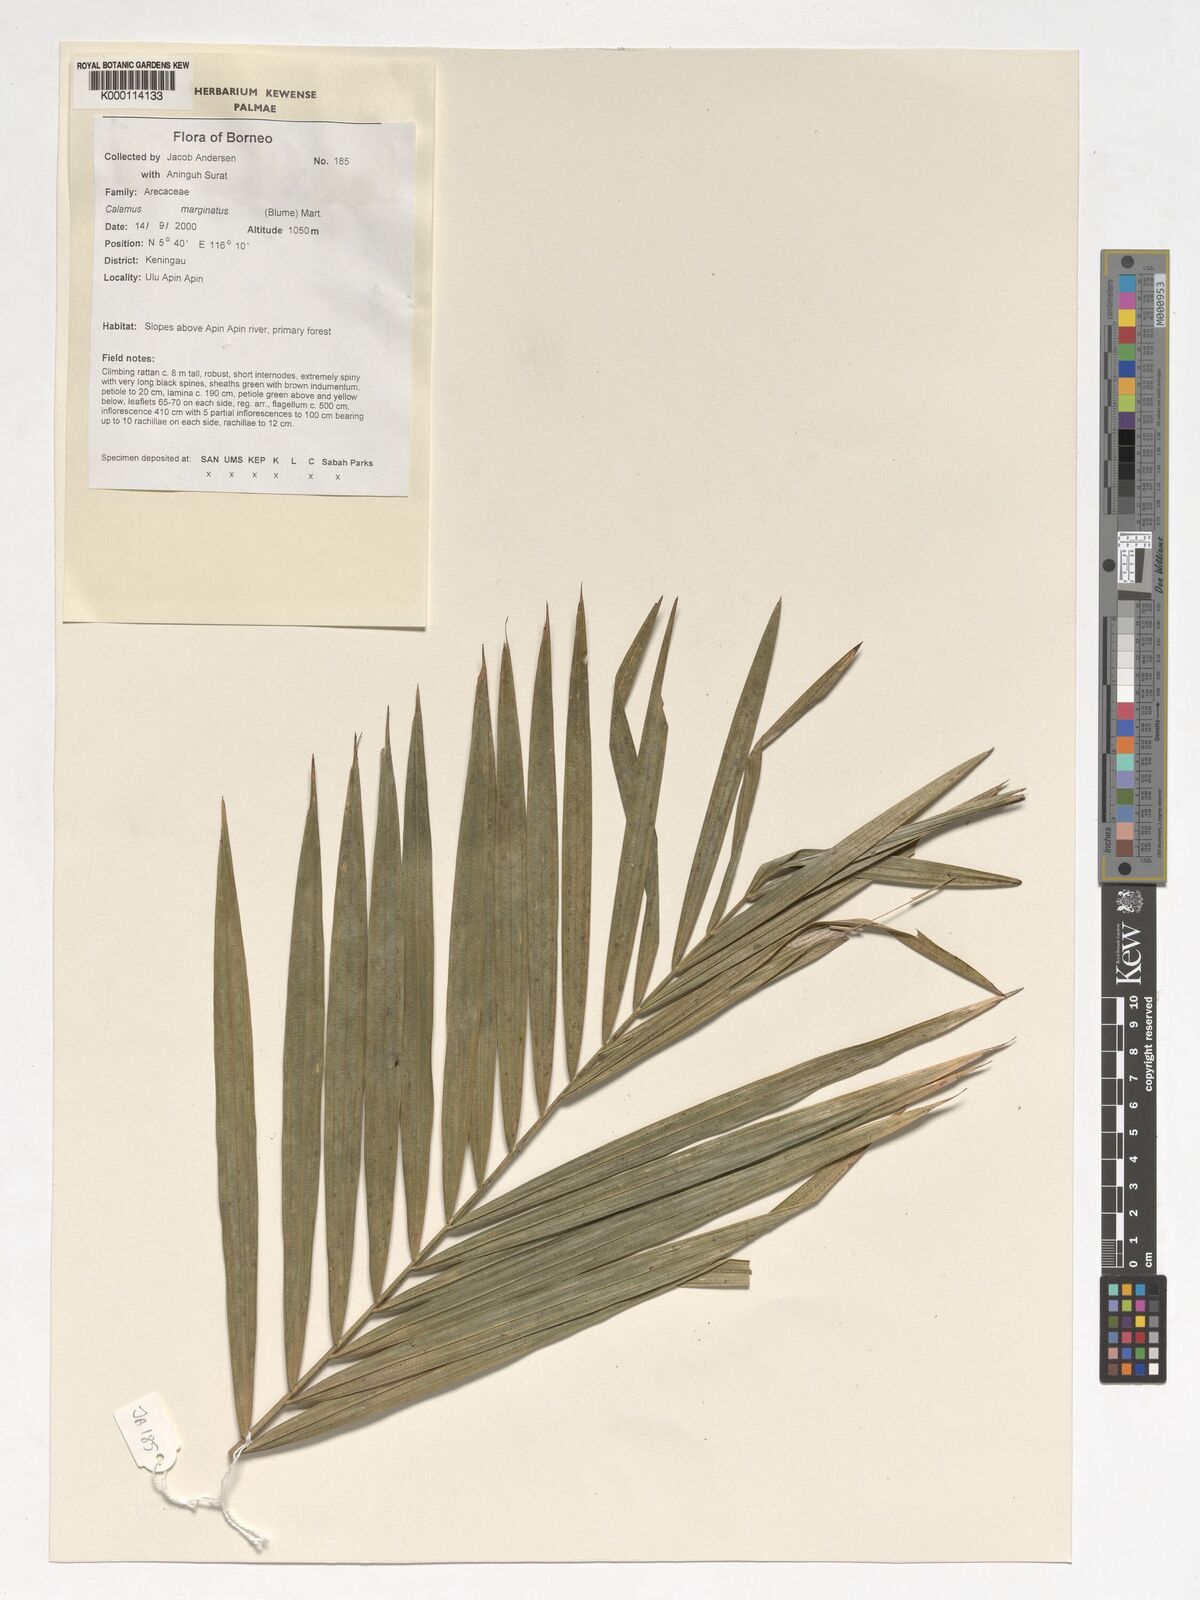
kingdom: Plantae
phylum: Tracheophyta
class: Liliopsida
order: Arecales
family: Arecaceae
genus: Calamus
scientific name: Calamus
